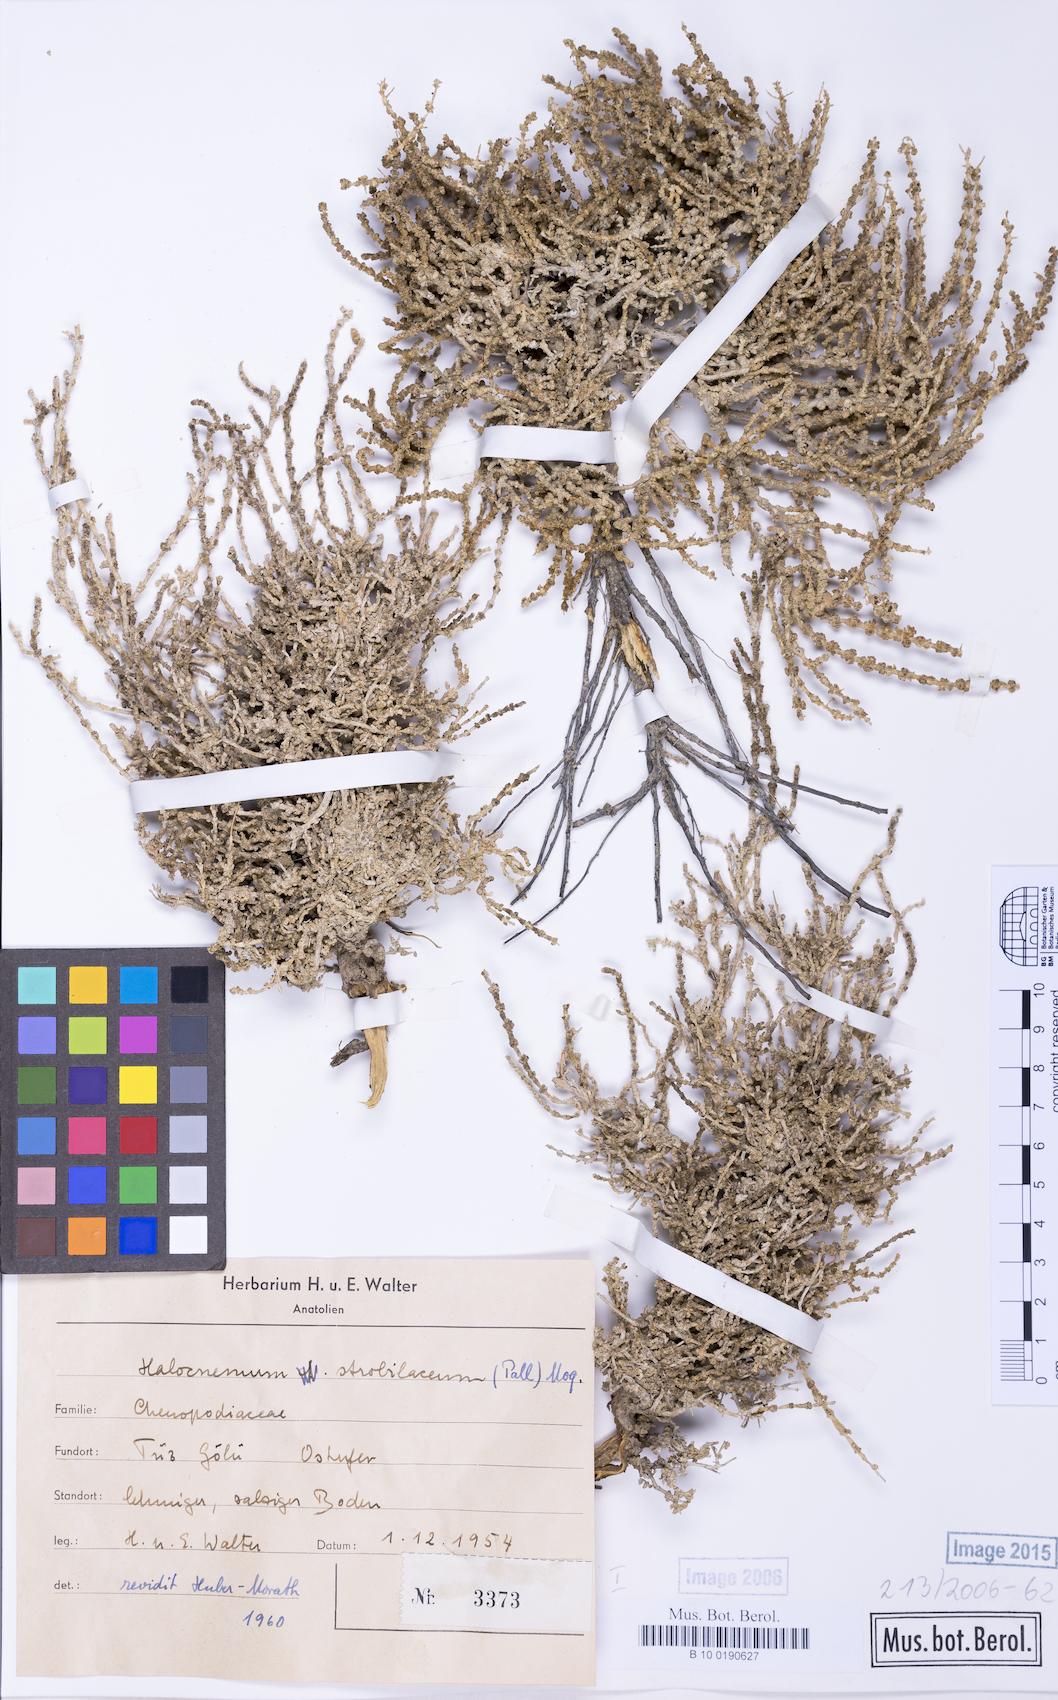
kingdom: Plantae
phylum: Tracheophyta
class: Magnoliopsida
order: Caryophyllales
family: Amaranthaceae
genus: Halocnemum
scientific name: Halocnemum strobilaceum
